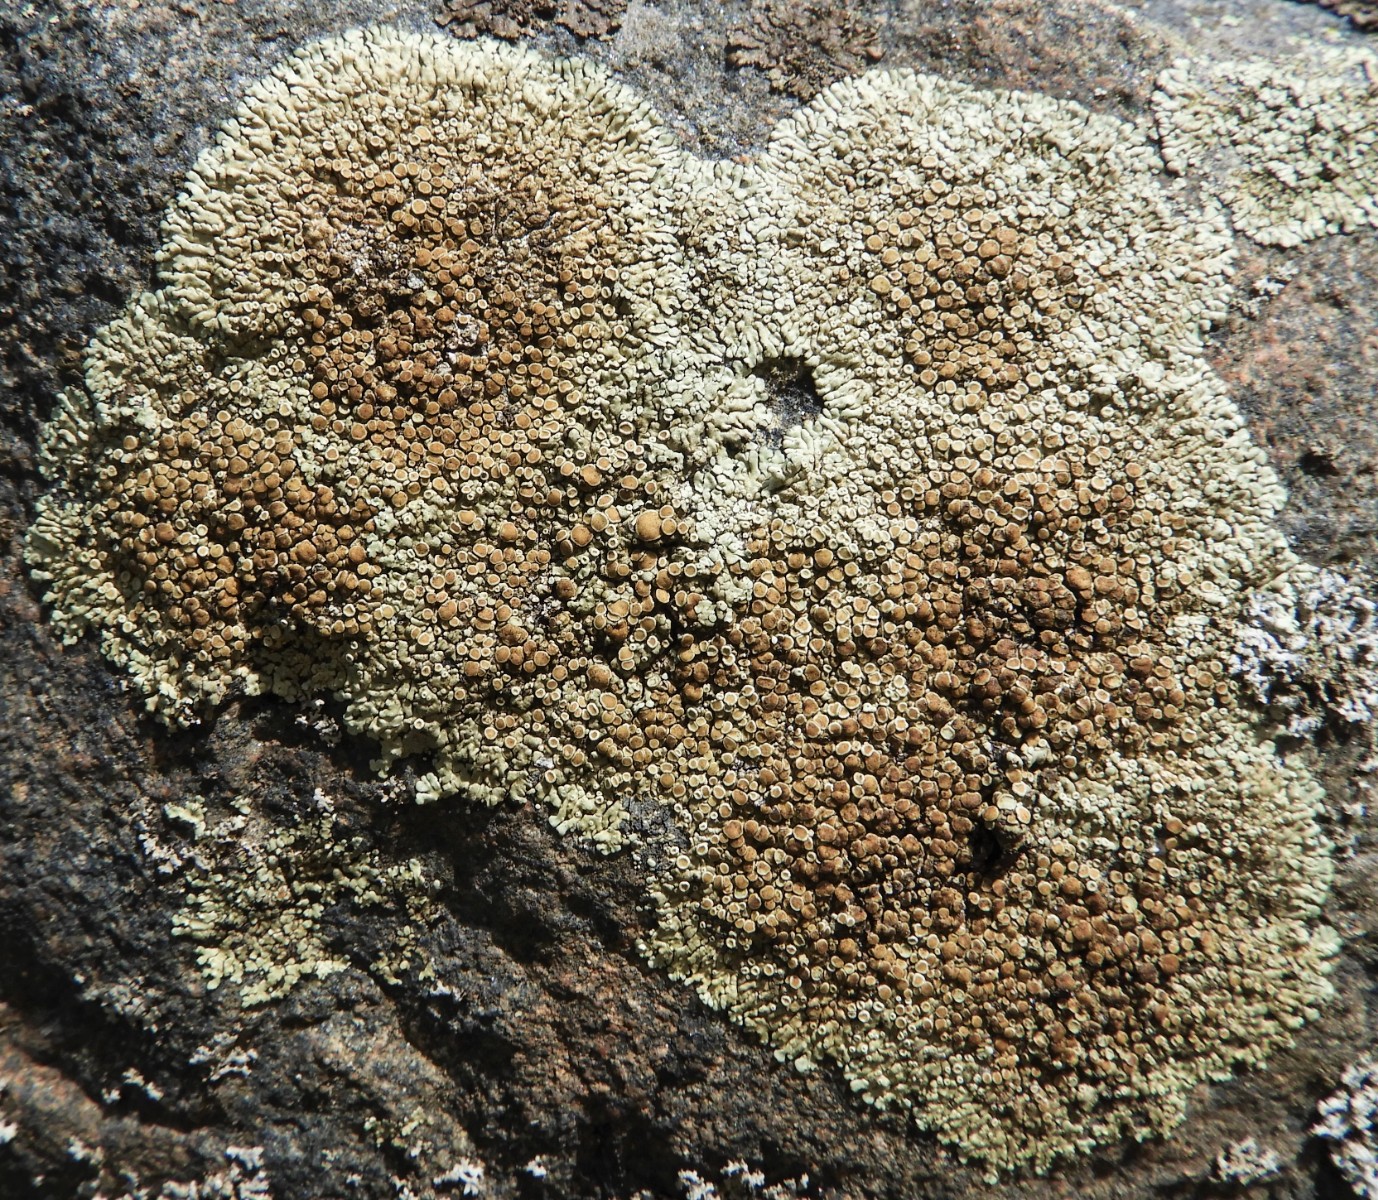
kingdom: Fungi
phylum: Ascomycota
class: Lecanoromycetes
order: Lecanorales
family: Lecanoraceae
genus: Protoparmeliopsis
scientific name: Protoparmeliopsis muralis
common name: randfliget kantskivelav
